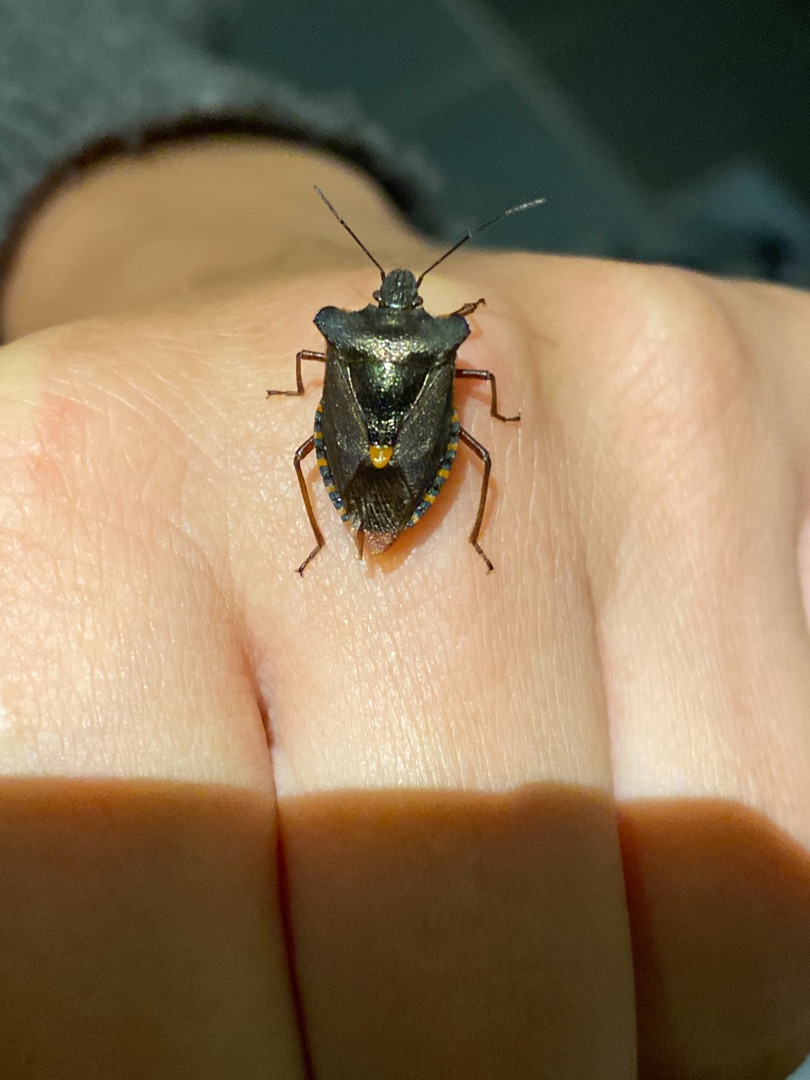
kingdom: Animalia
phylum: Arthropoda
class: Insecta
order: Hemiptera
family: Pentatomidae
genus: Pentatoma
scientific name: Pentatoma rufipes
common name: Rødbenet bredtæge
